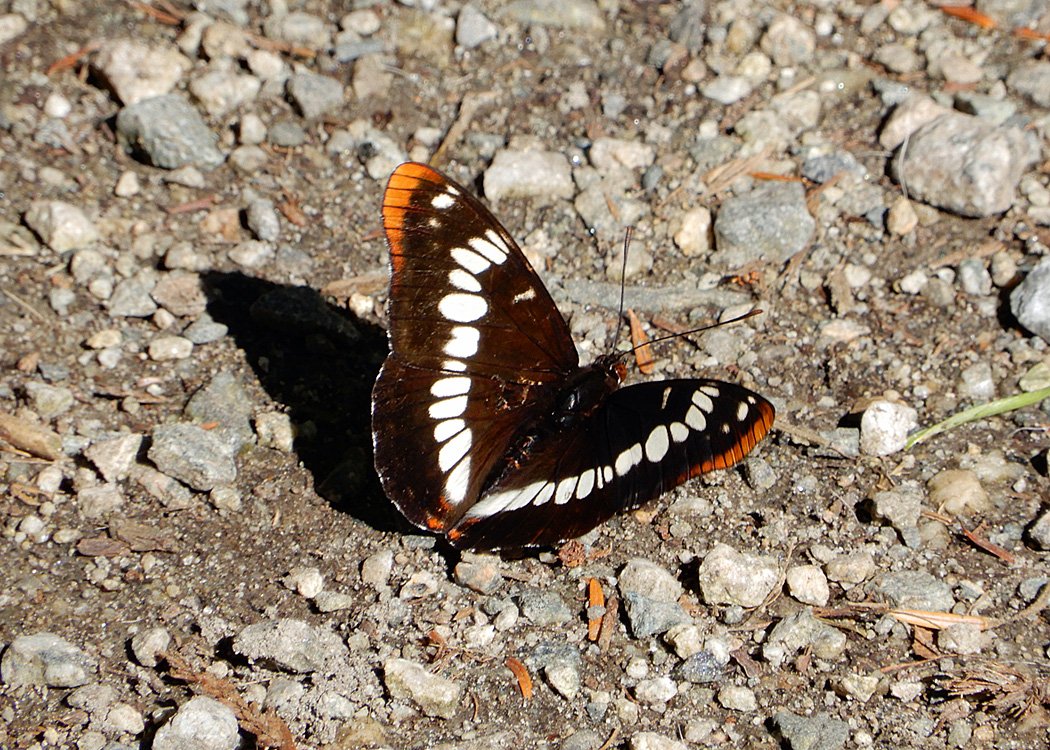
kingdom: Animalia
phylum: Arthropoda
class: Insecta
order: Lepidoptera
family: Nymphalidae
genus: Limenitis
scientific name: Limenitis
